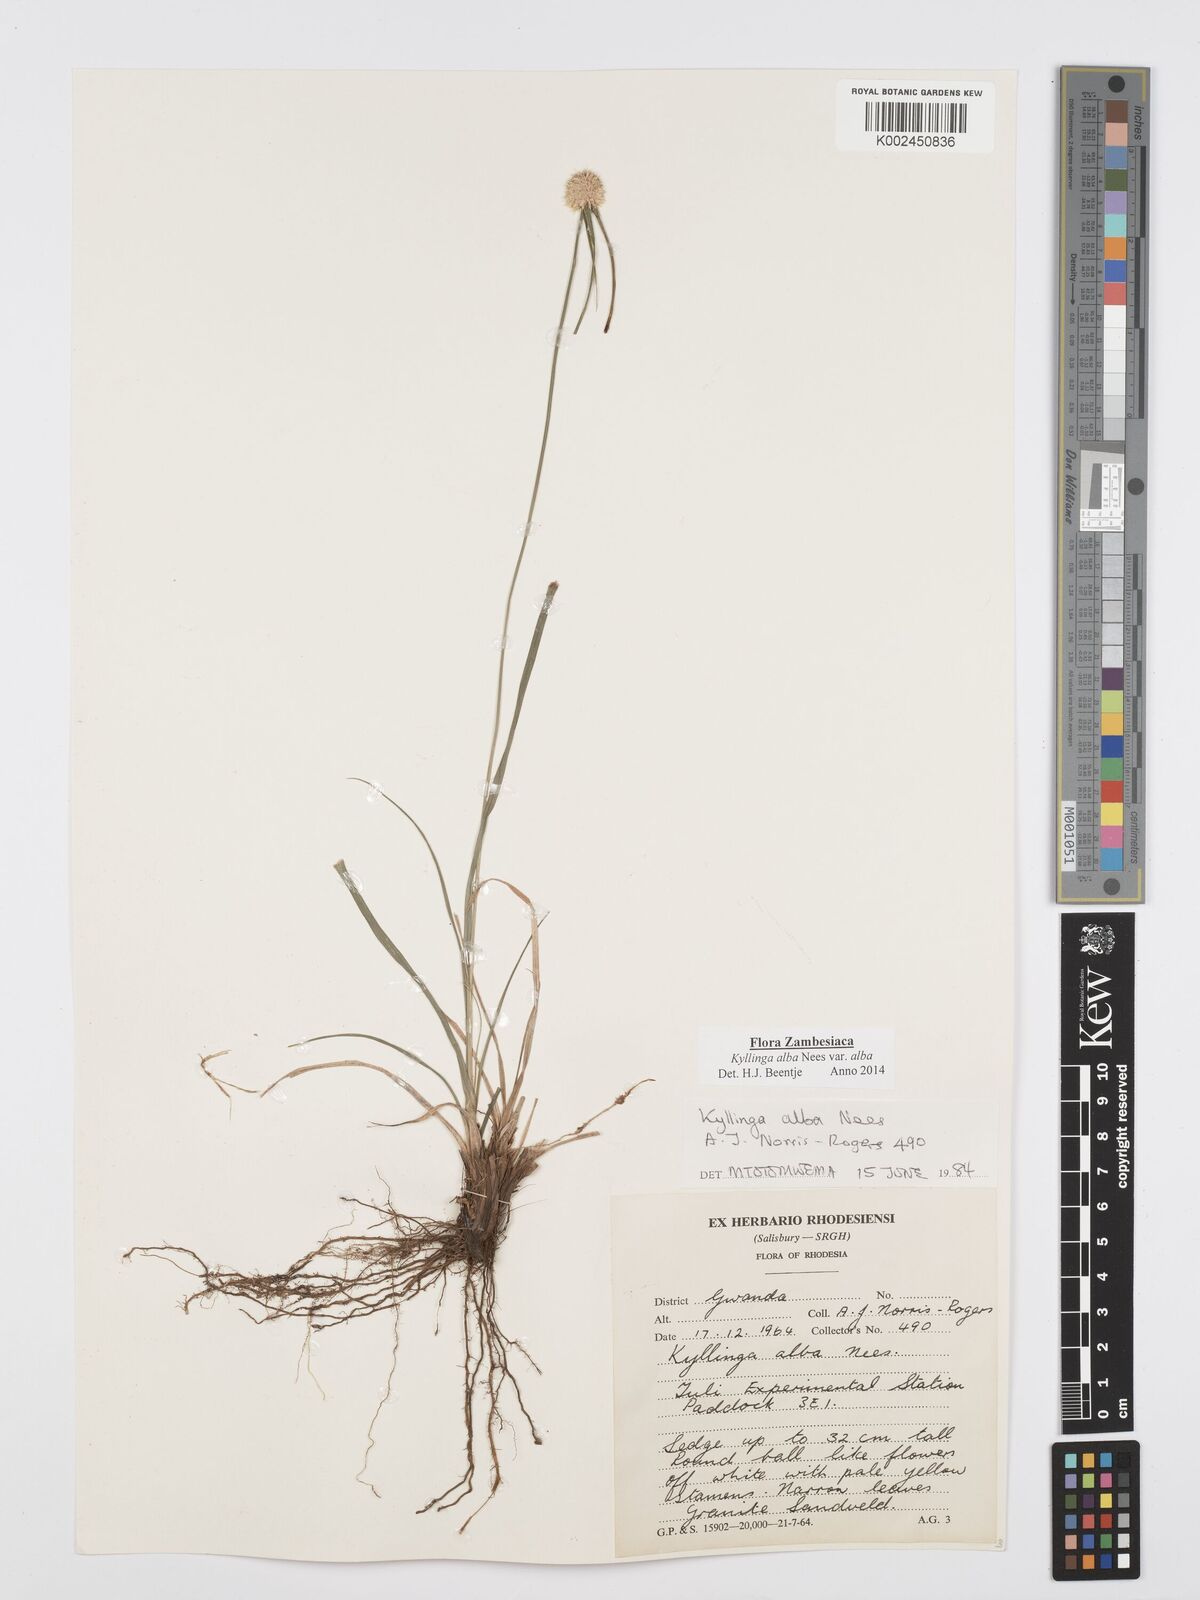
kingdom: Plantae
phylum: Tracheophyta
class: Liliopsida
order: Poales
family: Cyperaceae
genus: Cyperus
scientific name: Cyperus
